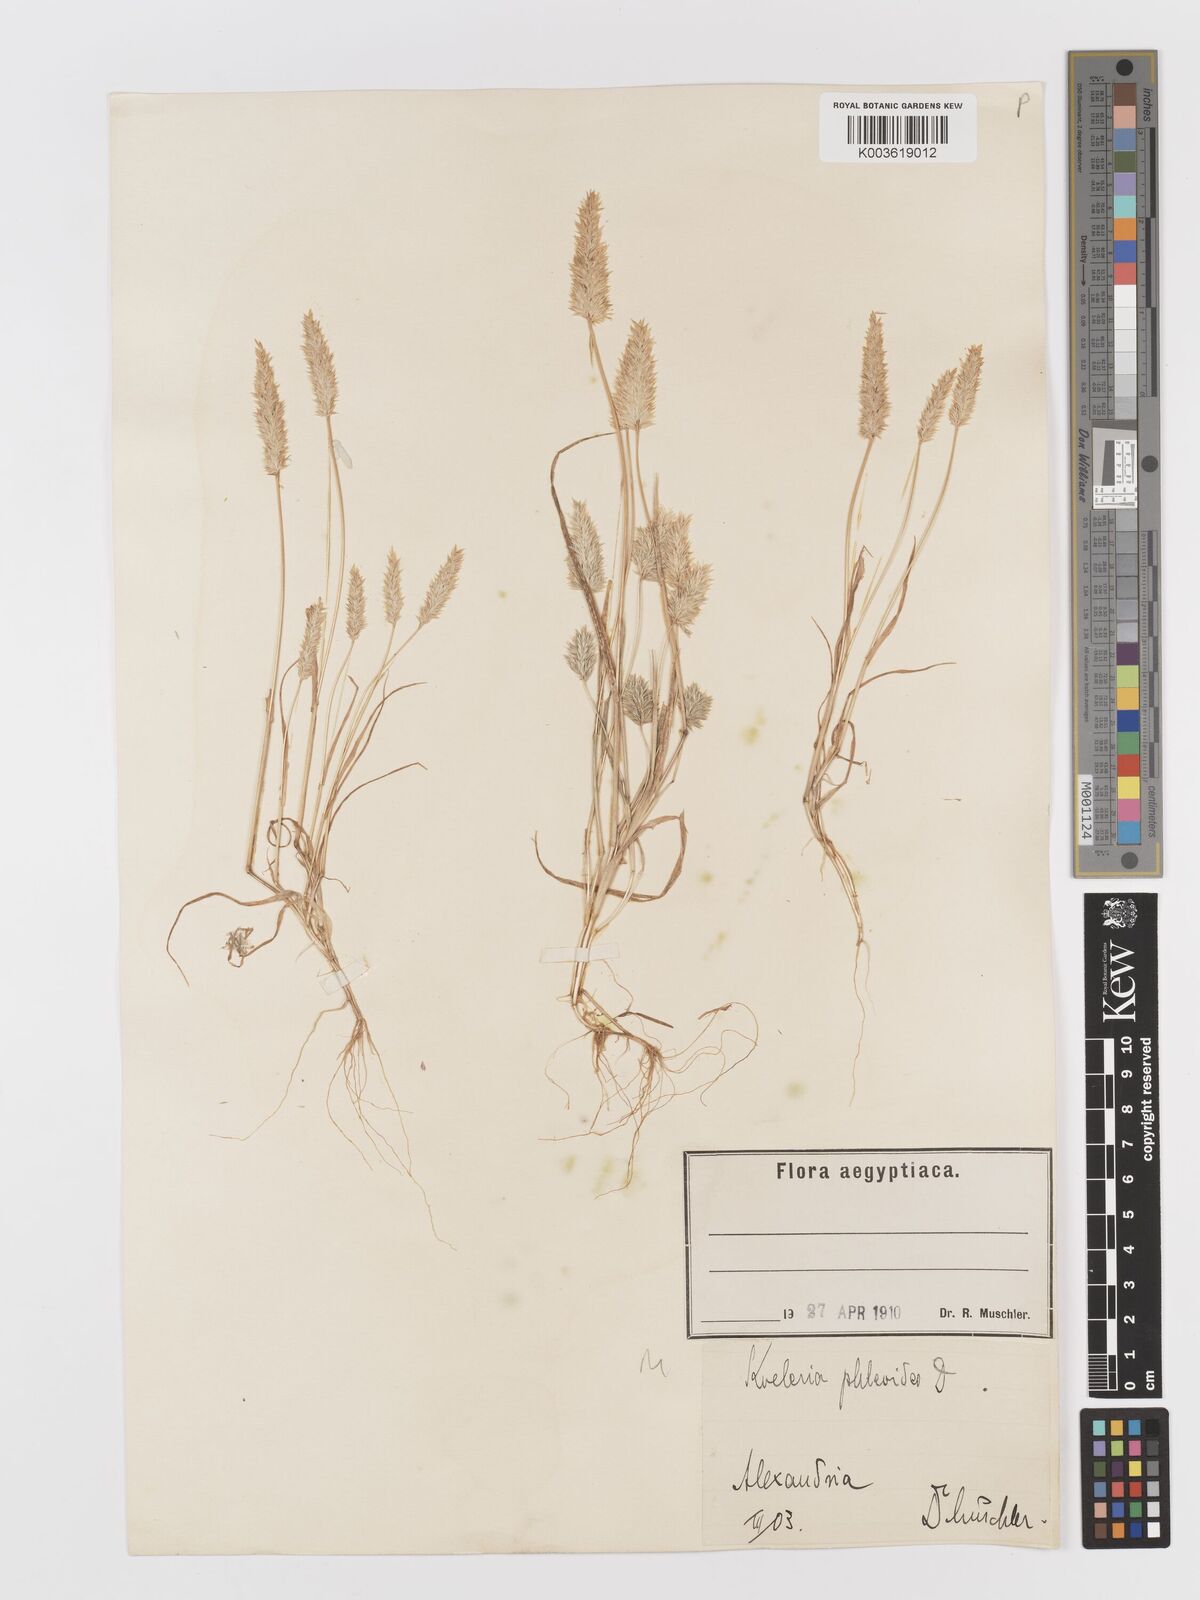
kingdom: Plantae
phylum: Tracheophyta
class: Liliopsida
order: Poales
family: Poaceae
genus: Rostraria
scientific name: Rostraria cristata
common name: Mediterranean hair-grass
